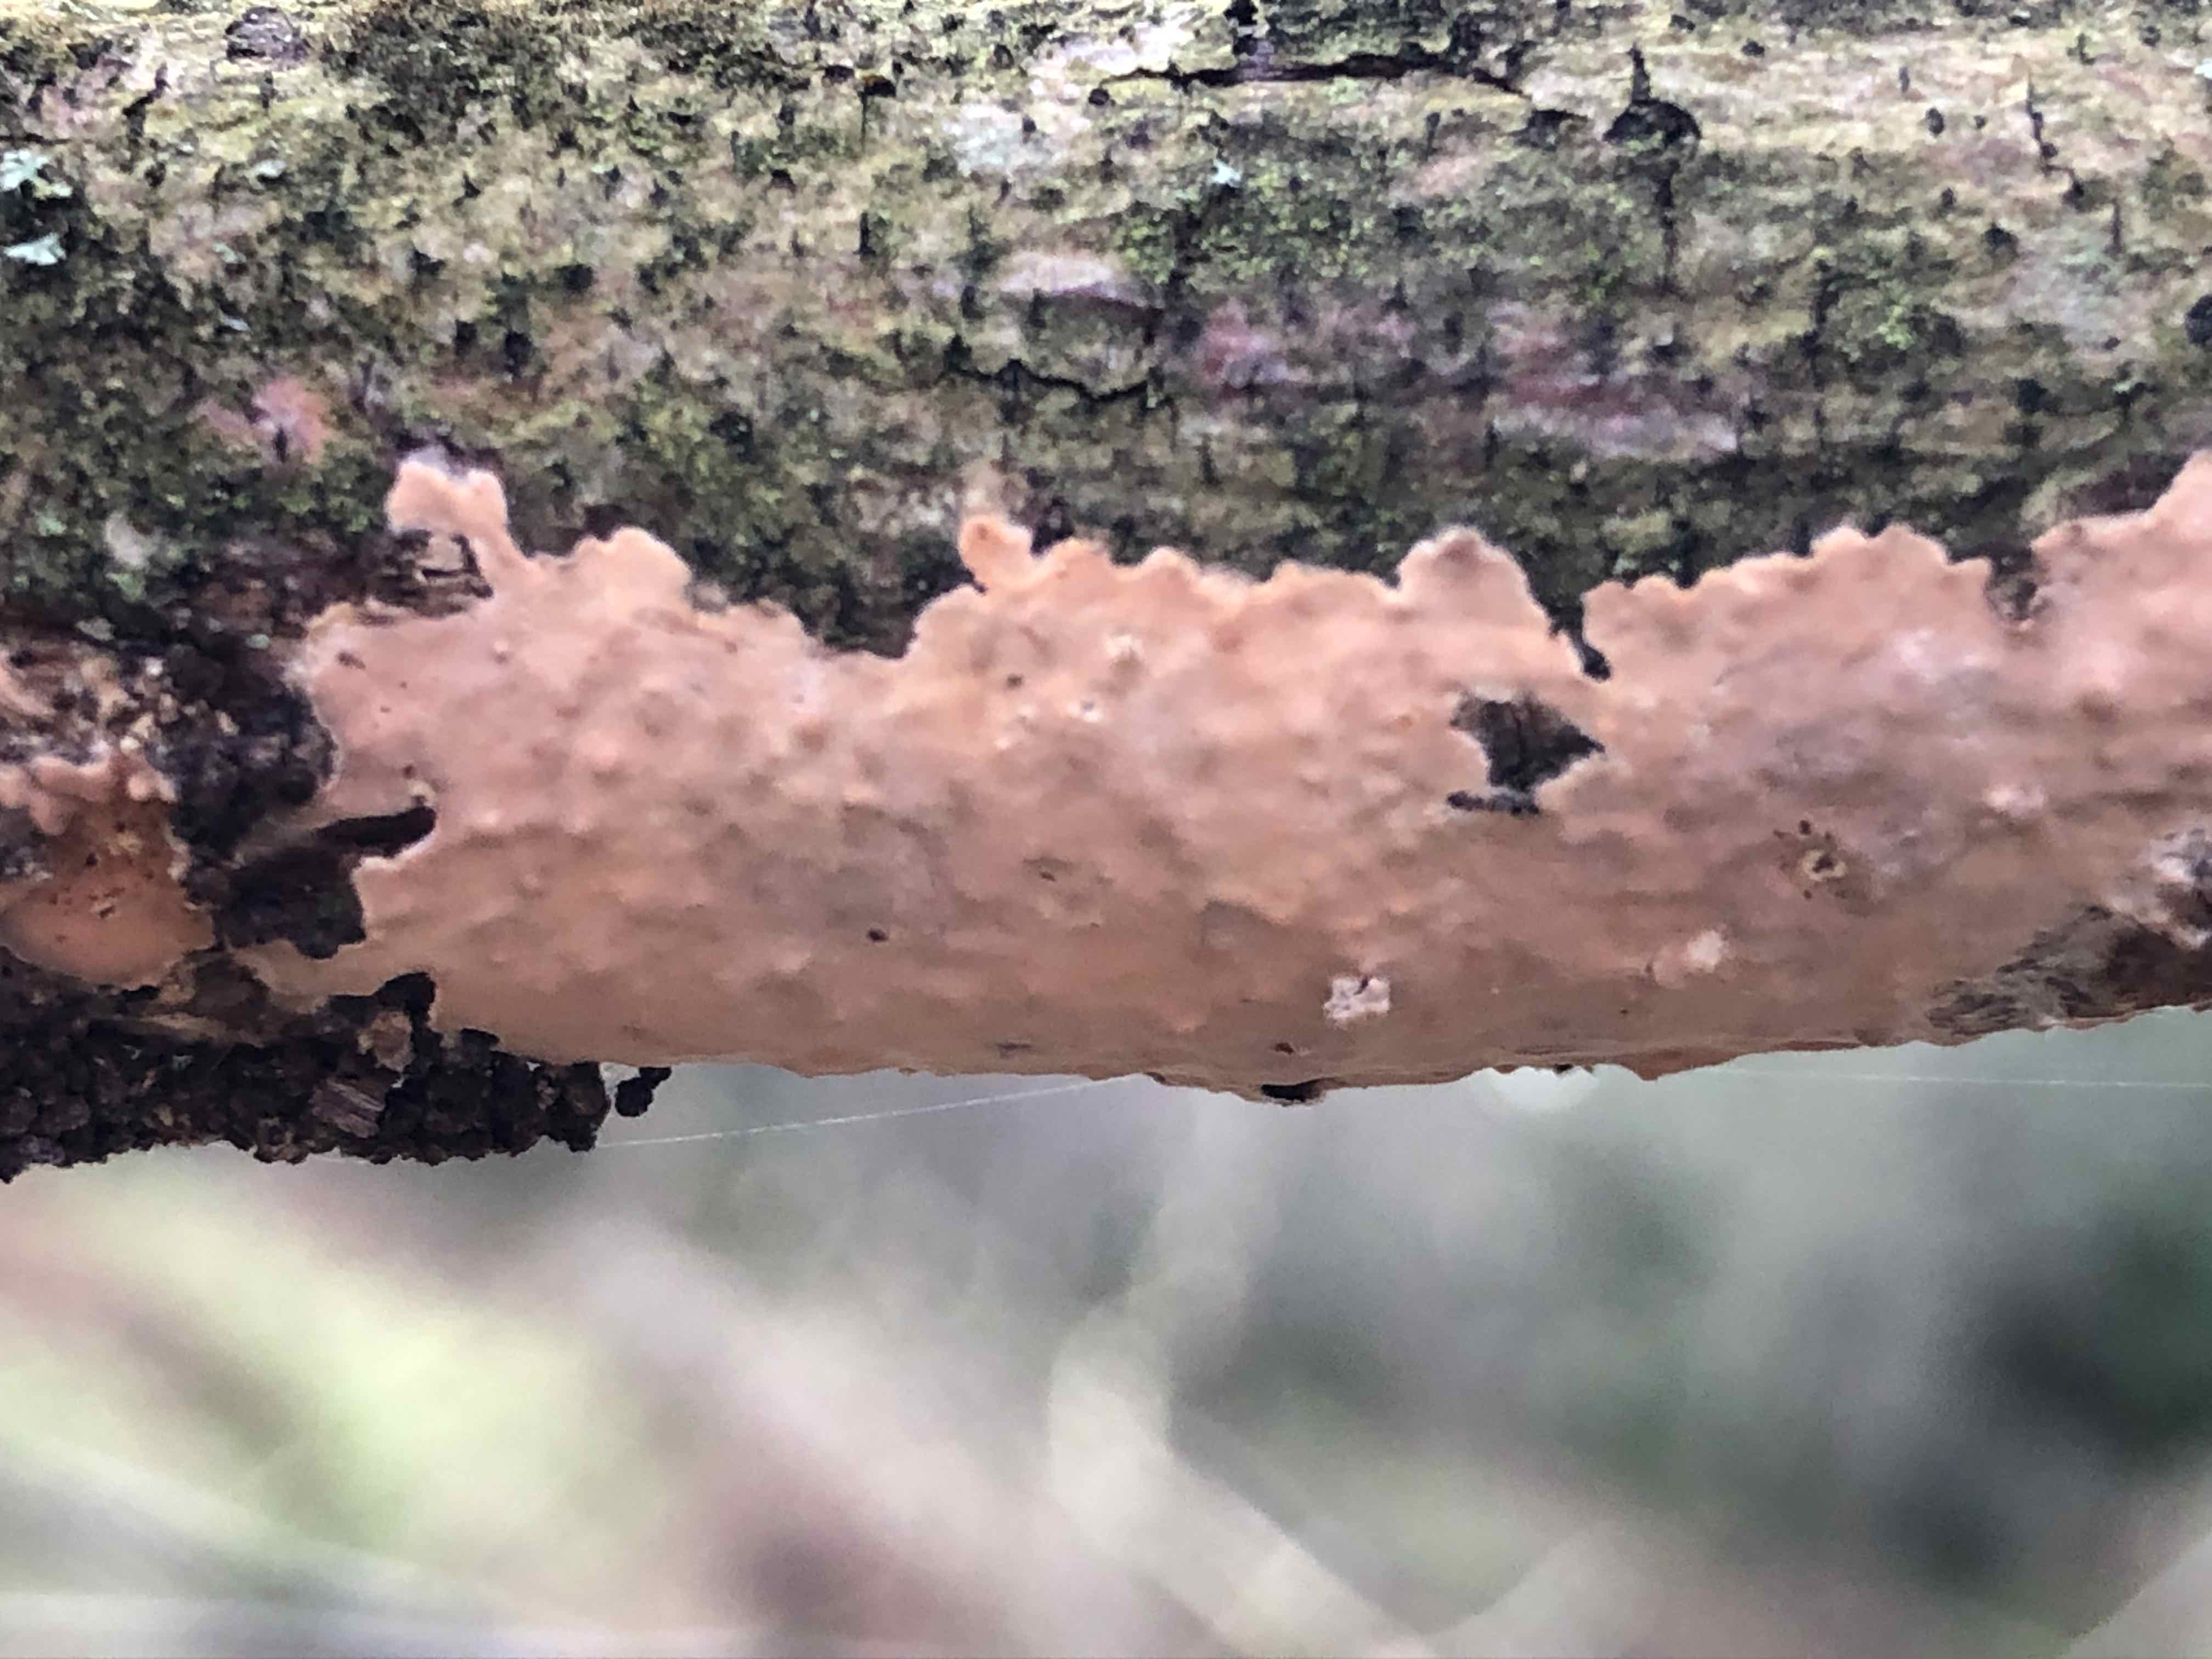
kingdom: Fungi
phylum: Basidiomycota
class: Agaricomycetes
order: Russulales
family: Peniophoraceae
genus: Peniophora
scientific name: Peniophora incarnata
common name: laksefarvet voksskind
